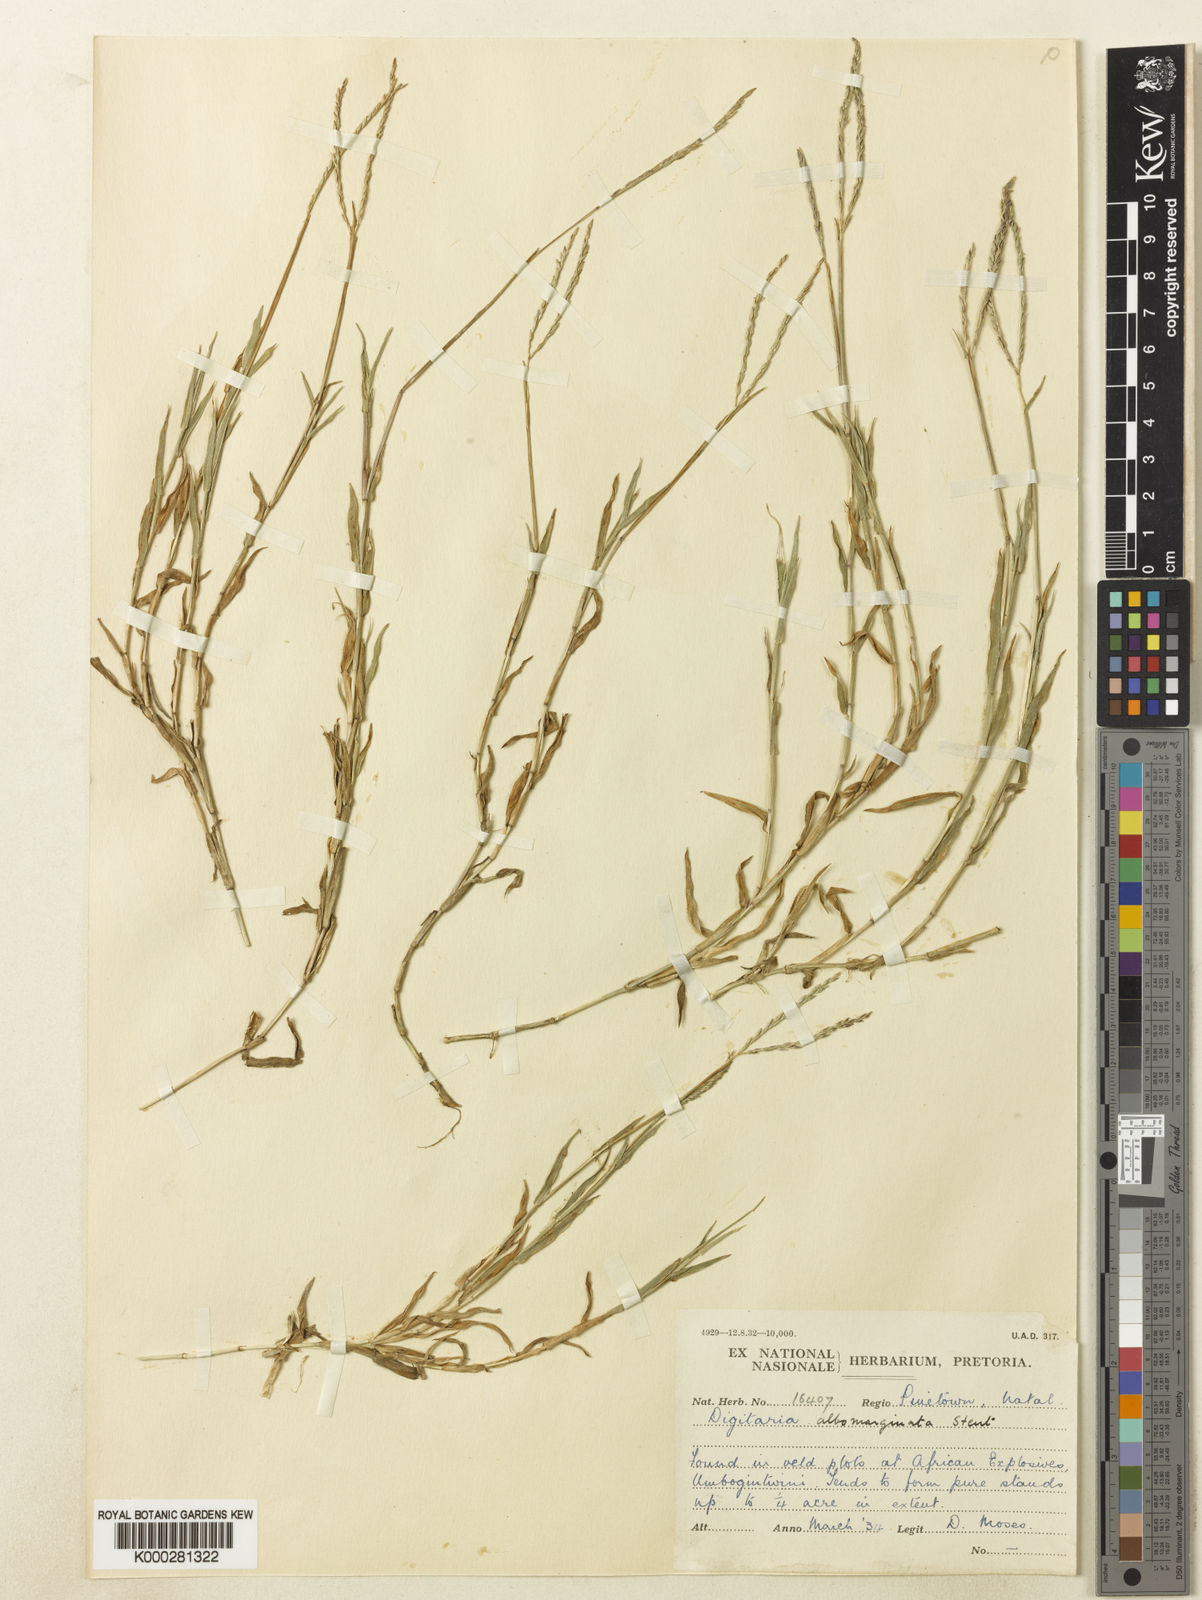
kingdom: Plantae
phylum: Tracheophyta
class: Liliopsida
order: Poales
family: Poaceae
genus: Digitaria
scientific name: Digitaria diversinervis
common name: Richmond finger grass
